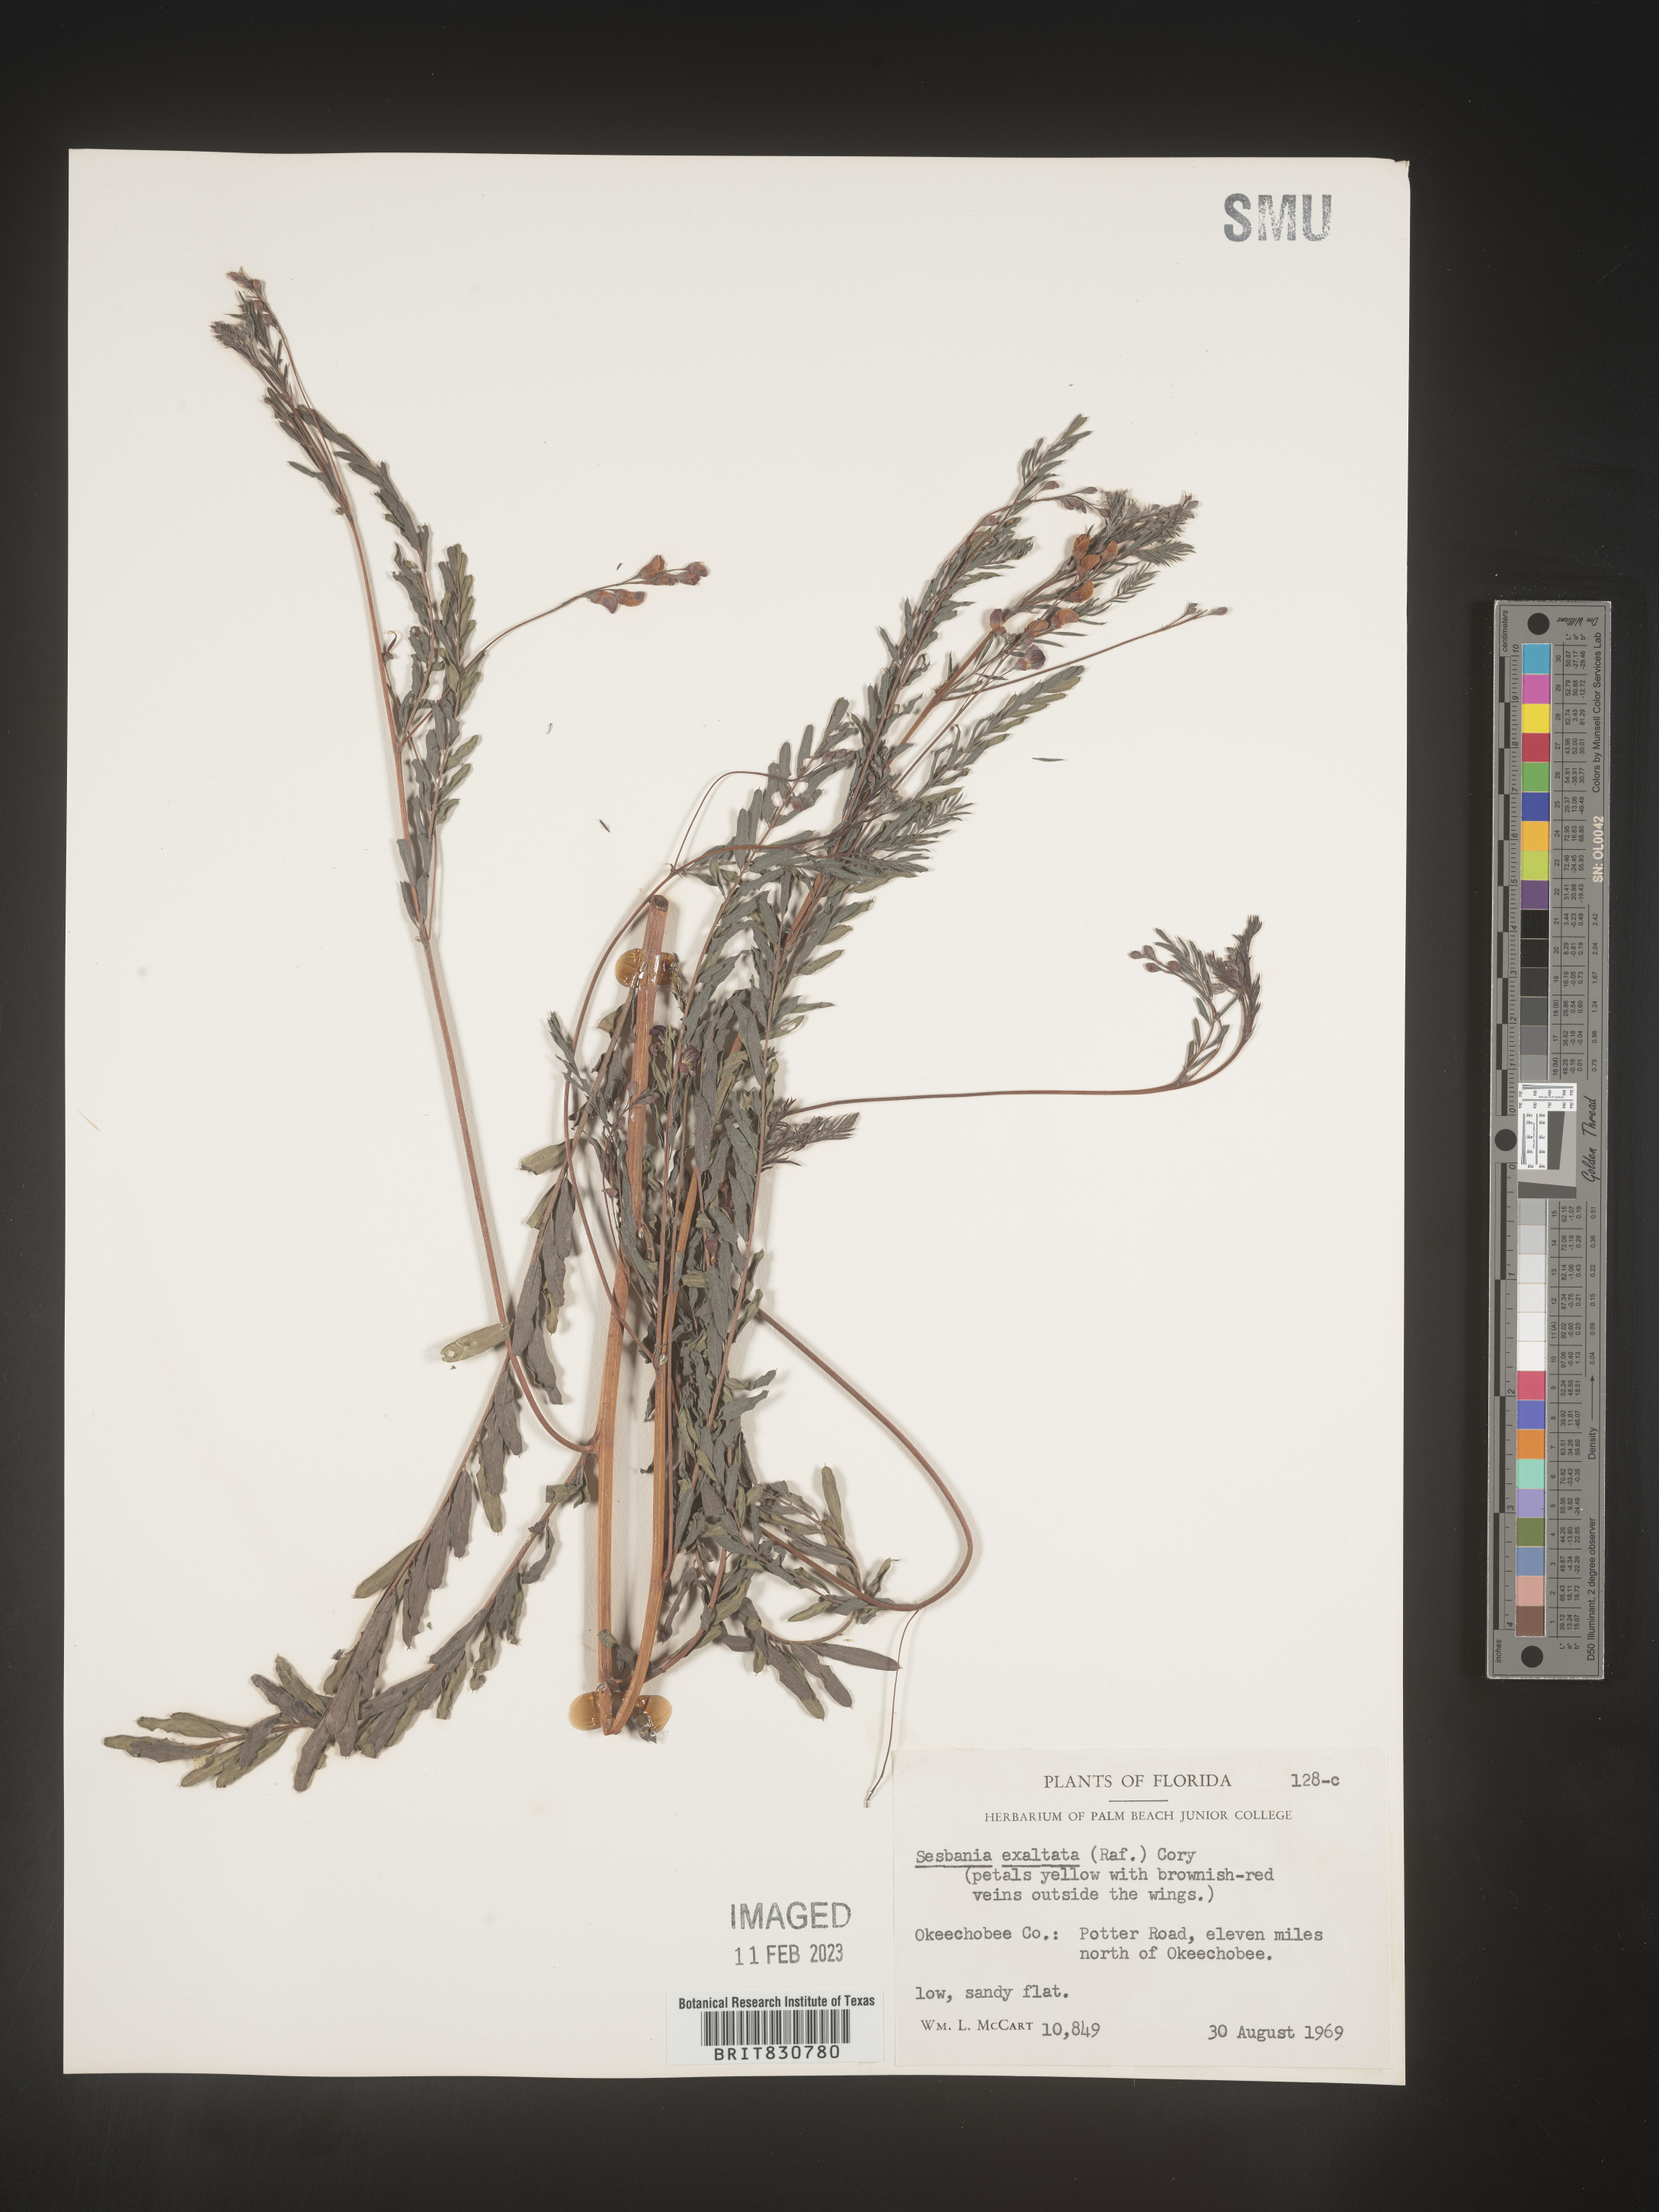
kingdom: Plantae
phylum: Tracheophyta
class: Magnoliopsida
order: Fabales
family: Fabaceae
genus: Sesbania
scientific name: Sesbania vesicaria
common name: Bagpod
